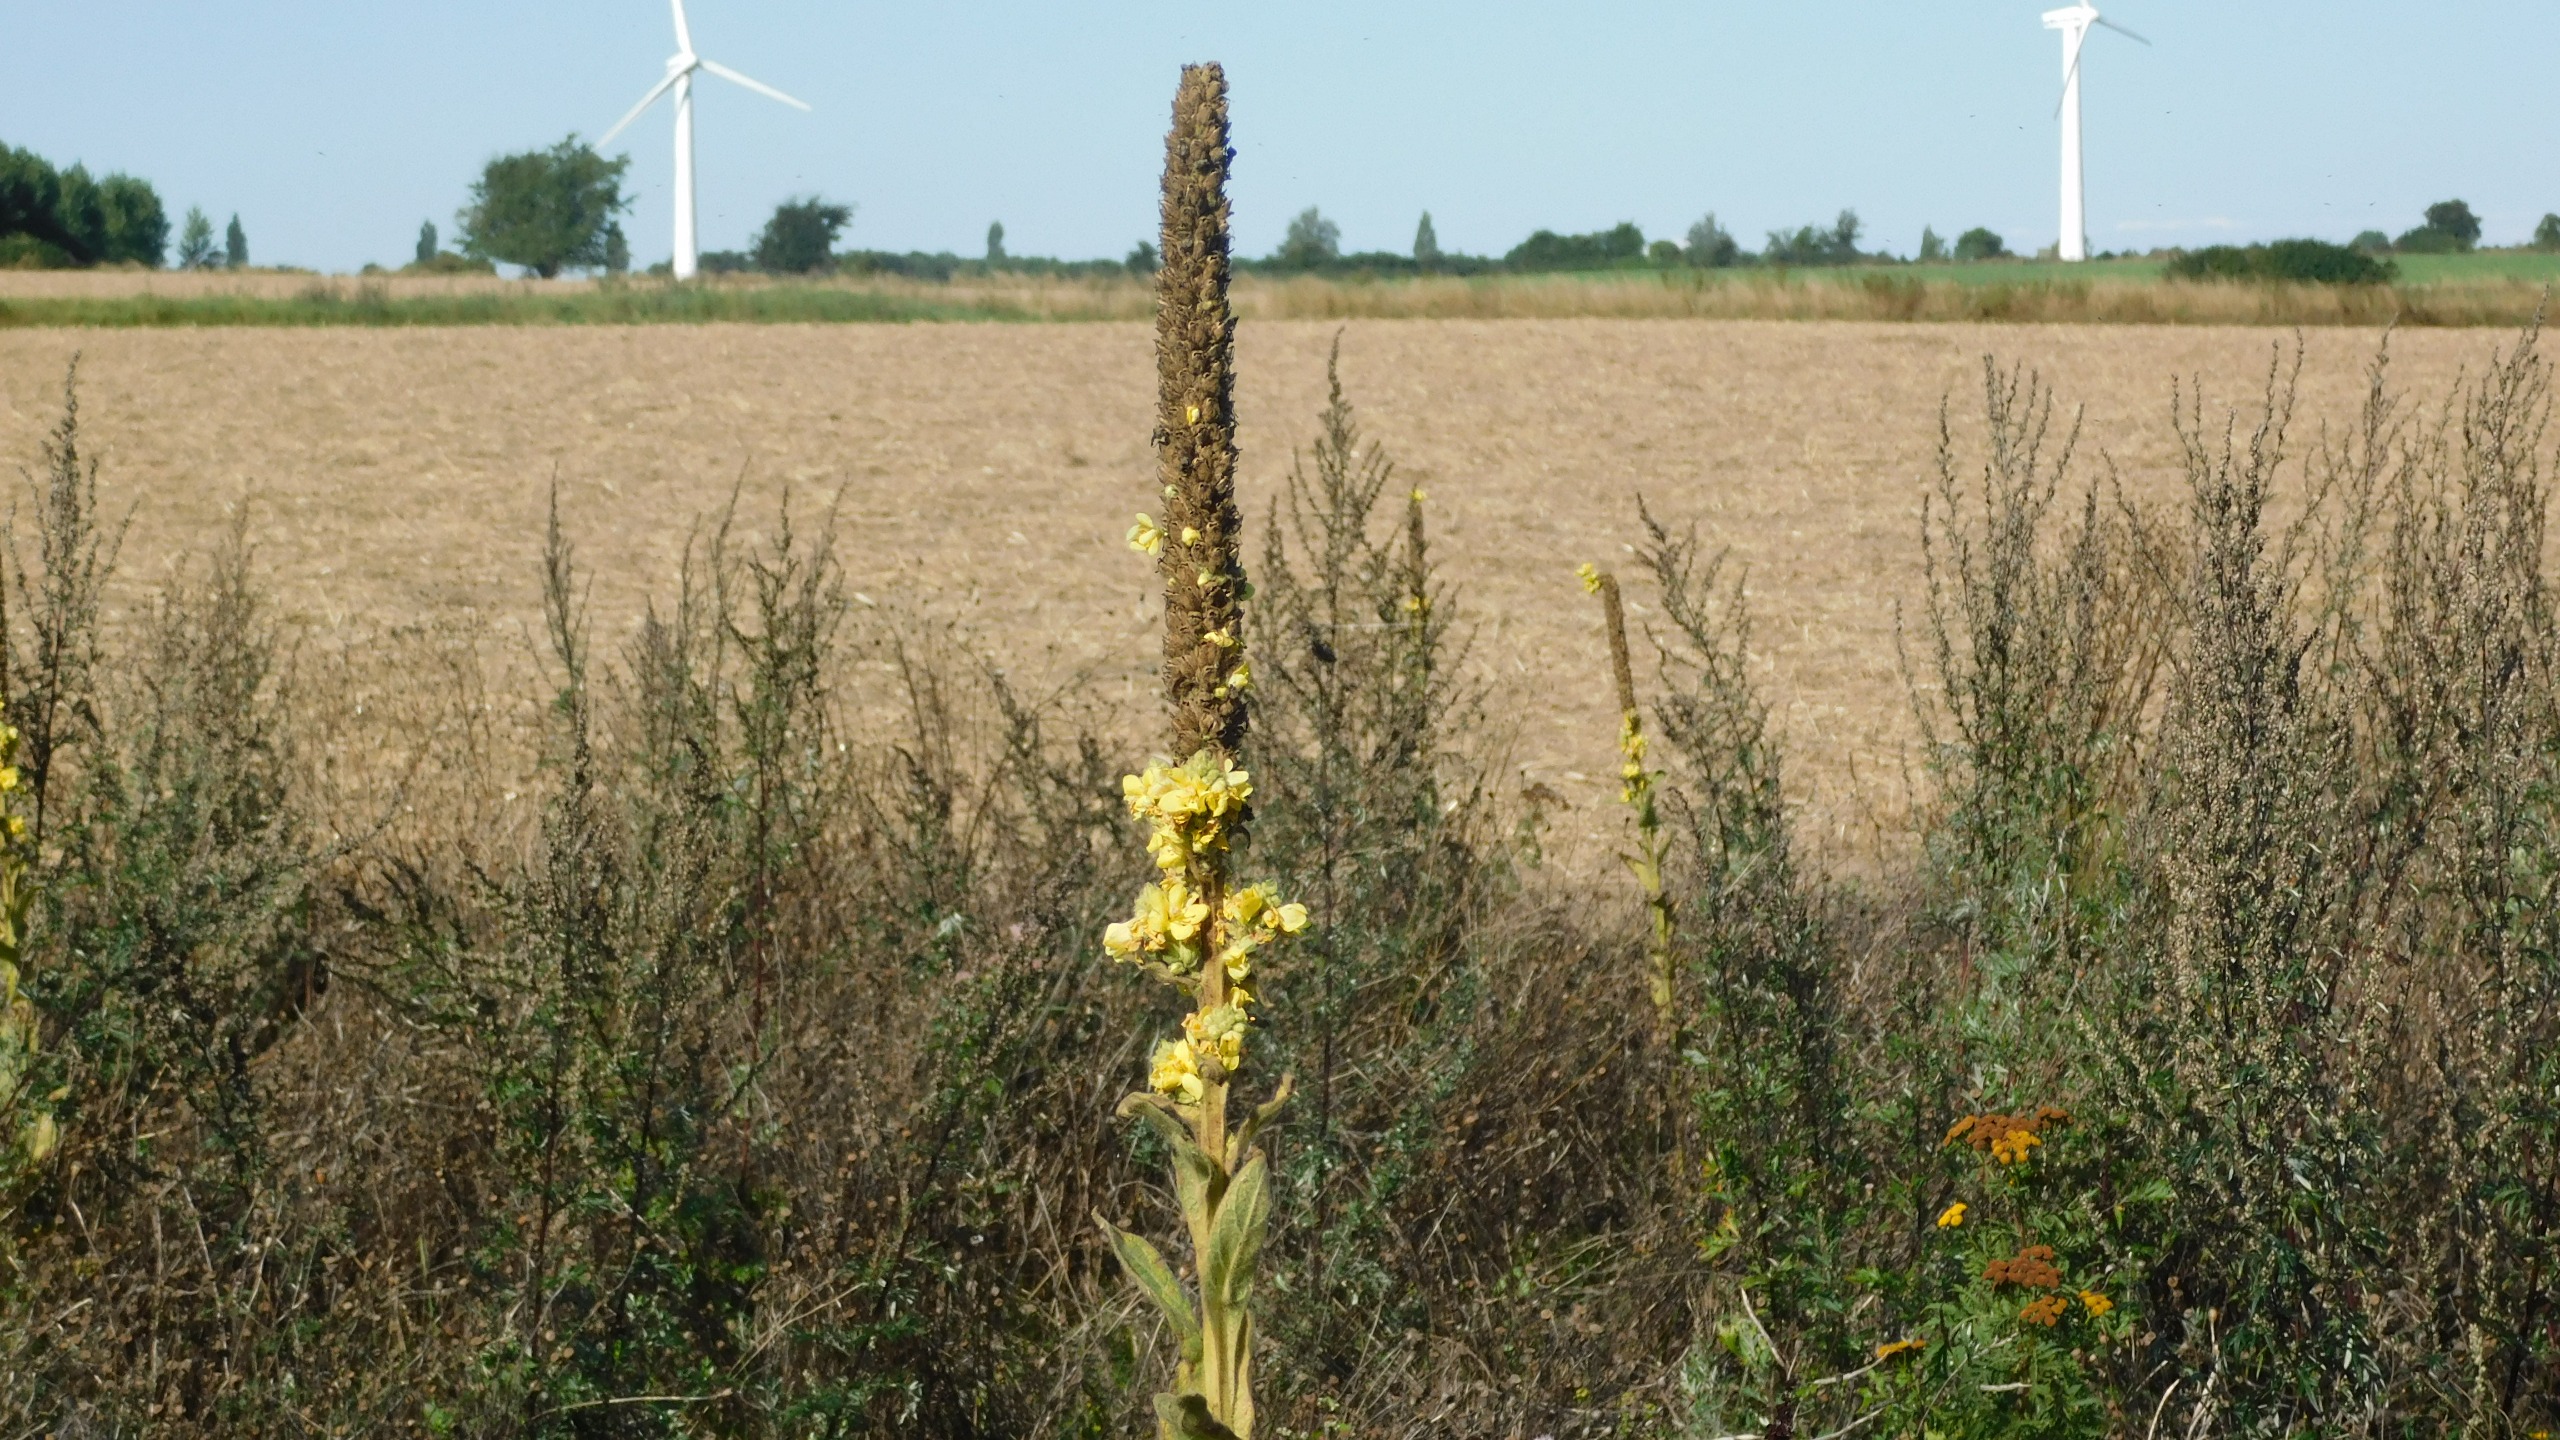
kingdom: Plantae
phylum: Tracheophyta
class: Magnoliopsida
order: Lamiales
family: Scrophulariaceae
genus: Verbascum
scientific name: Verbascum thapsus
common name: Filtbladet kongelys
